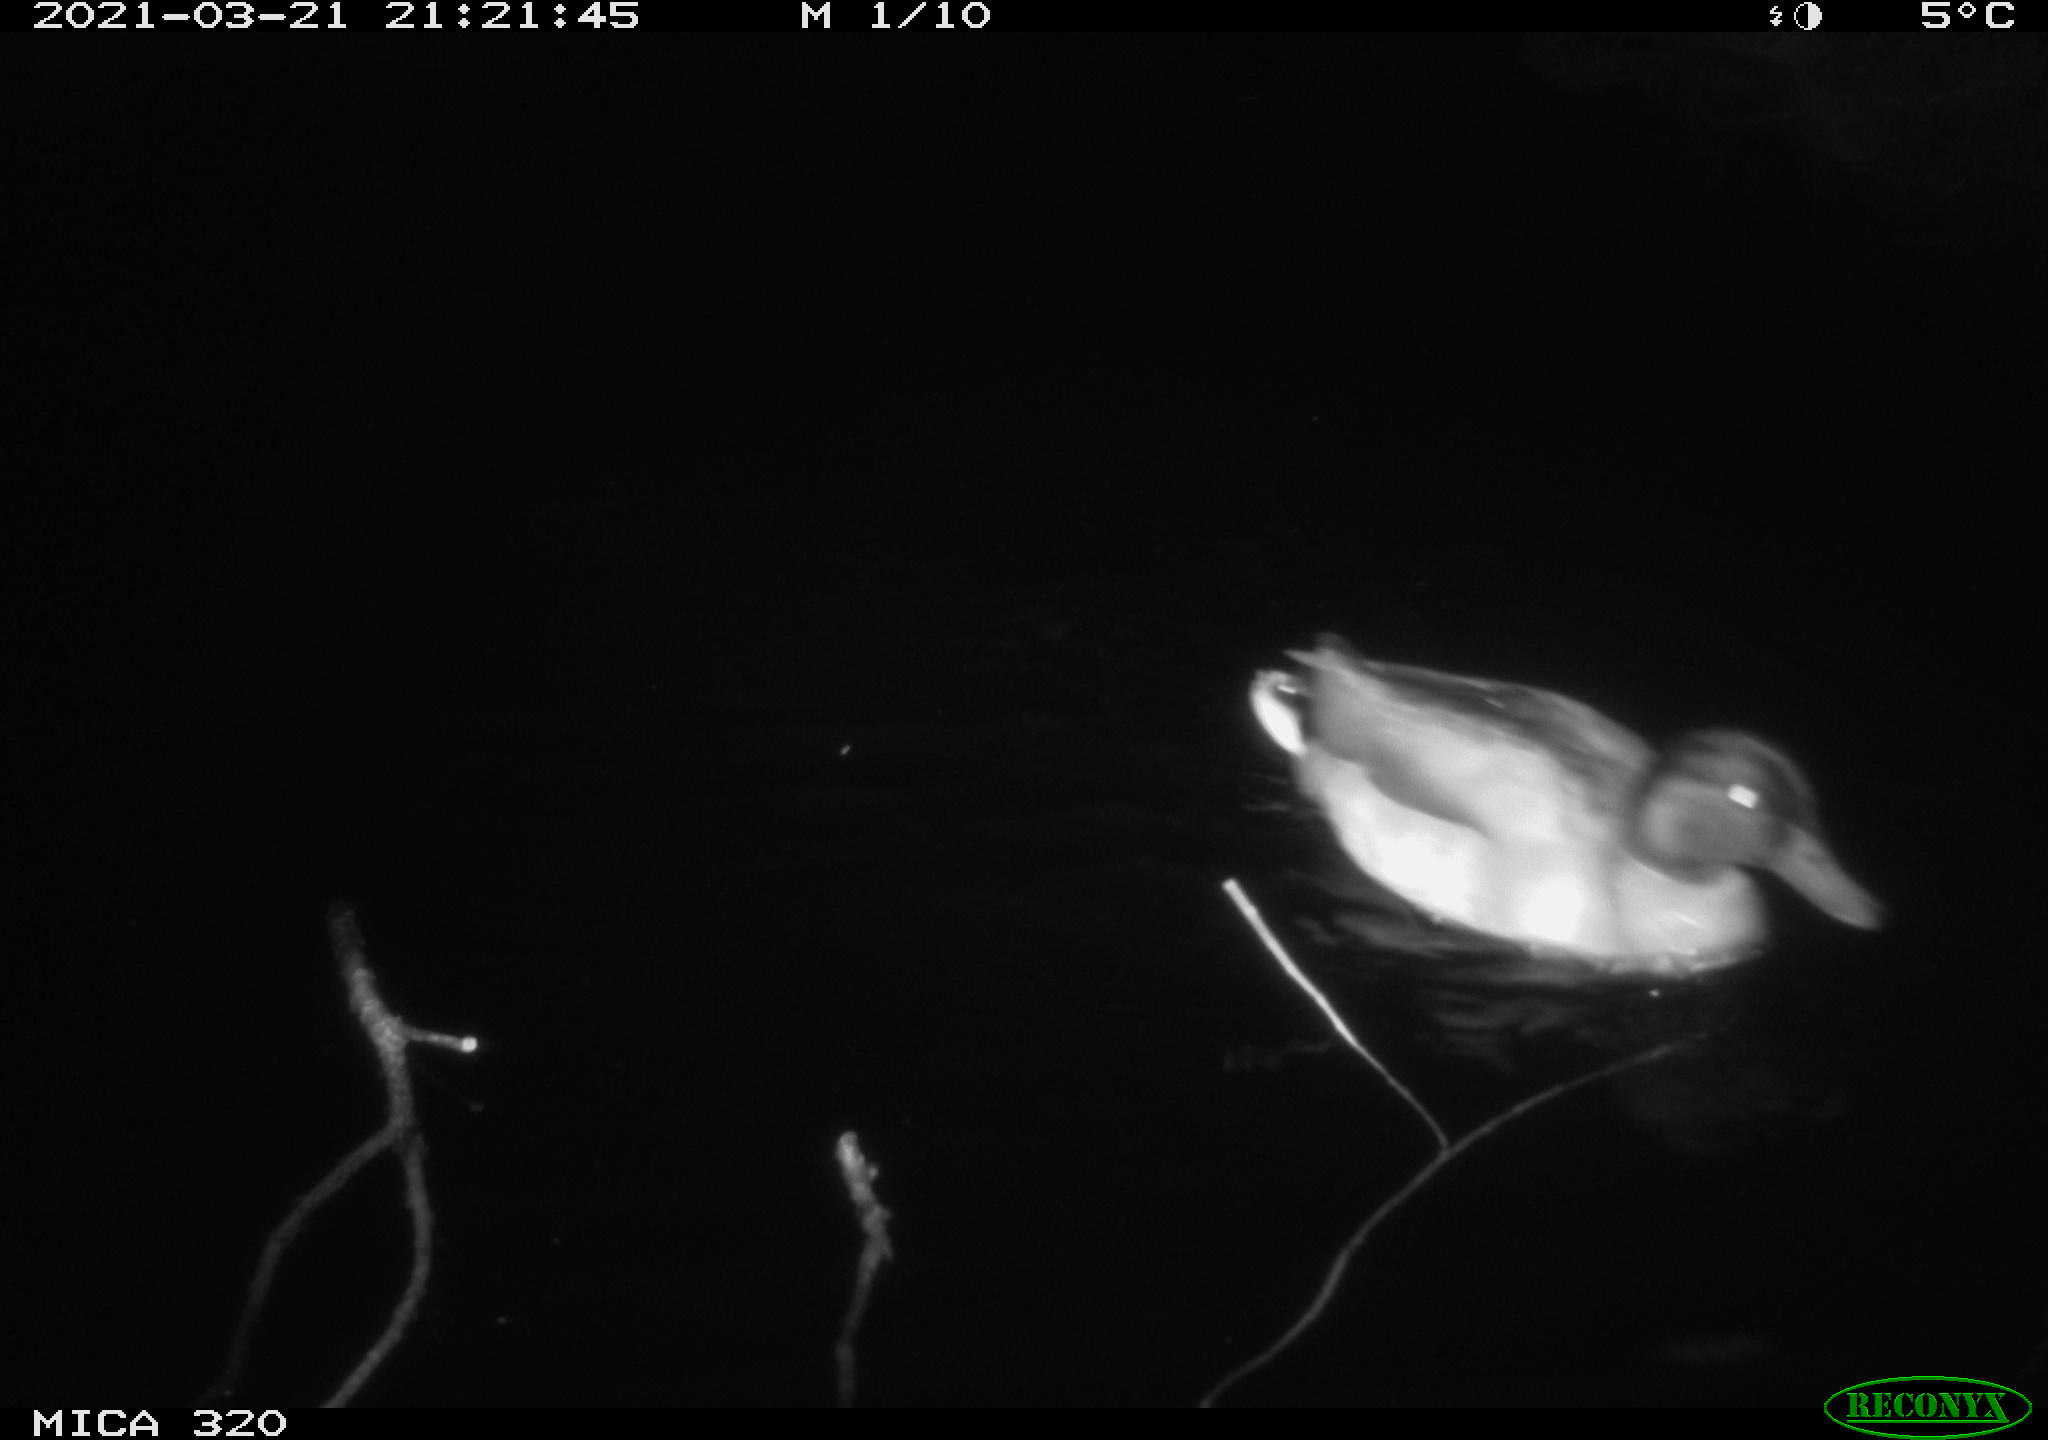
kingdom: Animalia
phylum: Chordata
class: Aves
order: Anseriformes
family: Anatidae
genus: Anas
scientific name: Anas platyrhynchos
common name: Mallard
